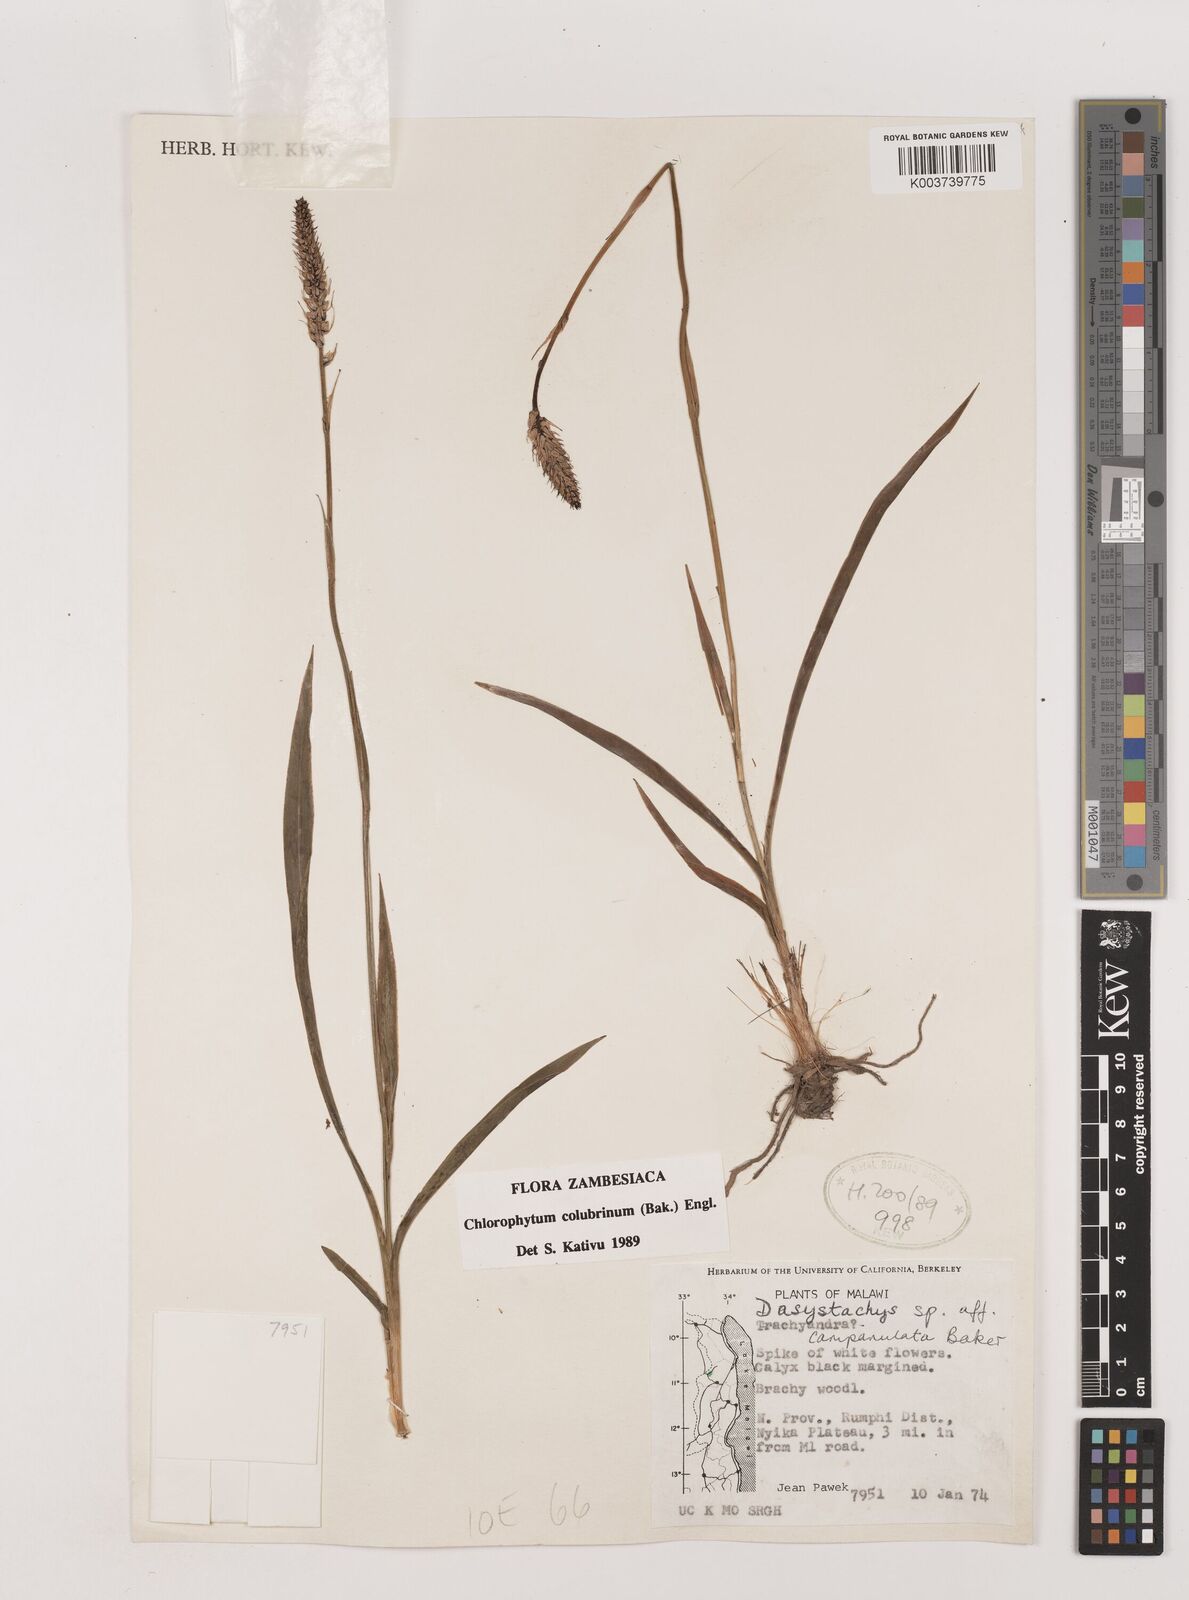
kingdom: Plantae
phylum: Tracheophyta
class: Liliopsida
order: Asparagales
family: Asparagaceae
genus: Chlorophytum
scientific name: Chlorophytum colubrinum
